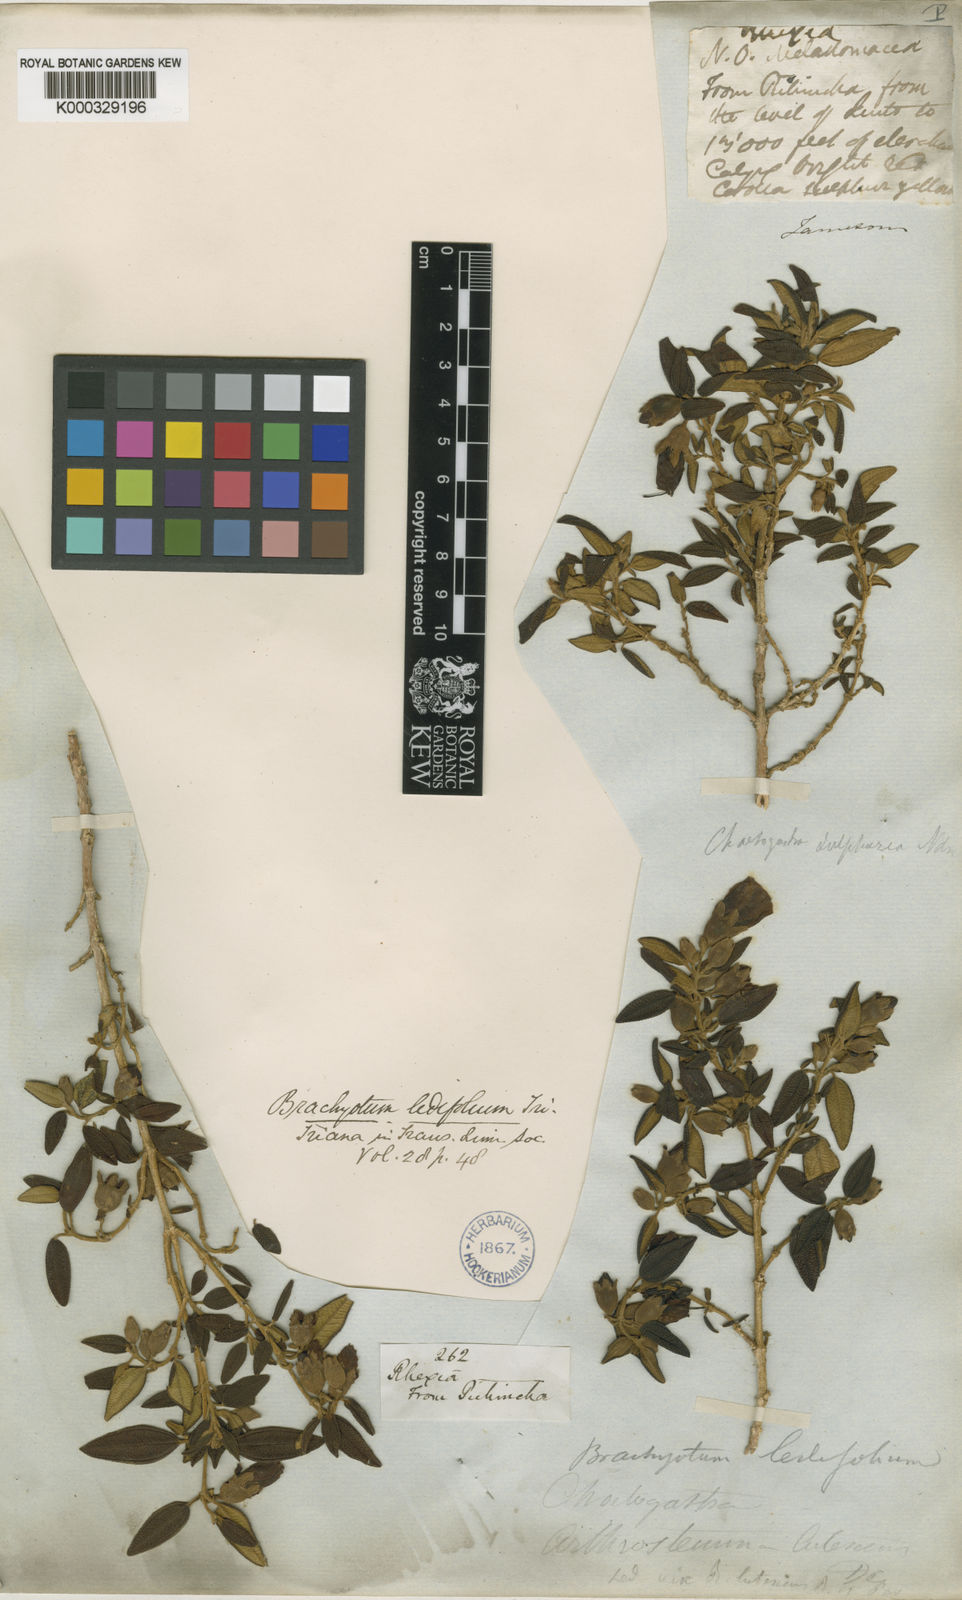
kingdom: Plantae
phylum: Tracheophyta
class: Magnoliopsida
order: Myrtales
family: Melastomataceae
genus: Brachyotum
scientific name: Brachyotum ledifolium
